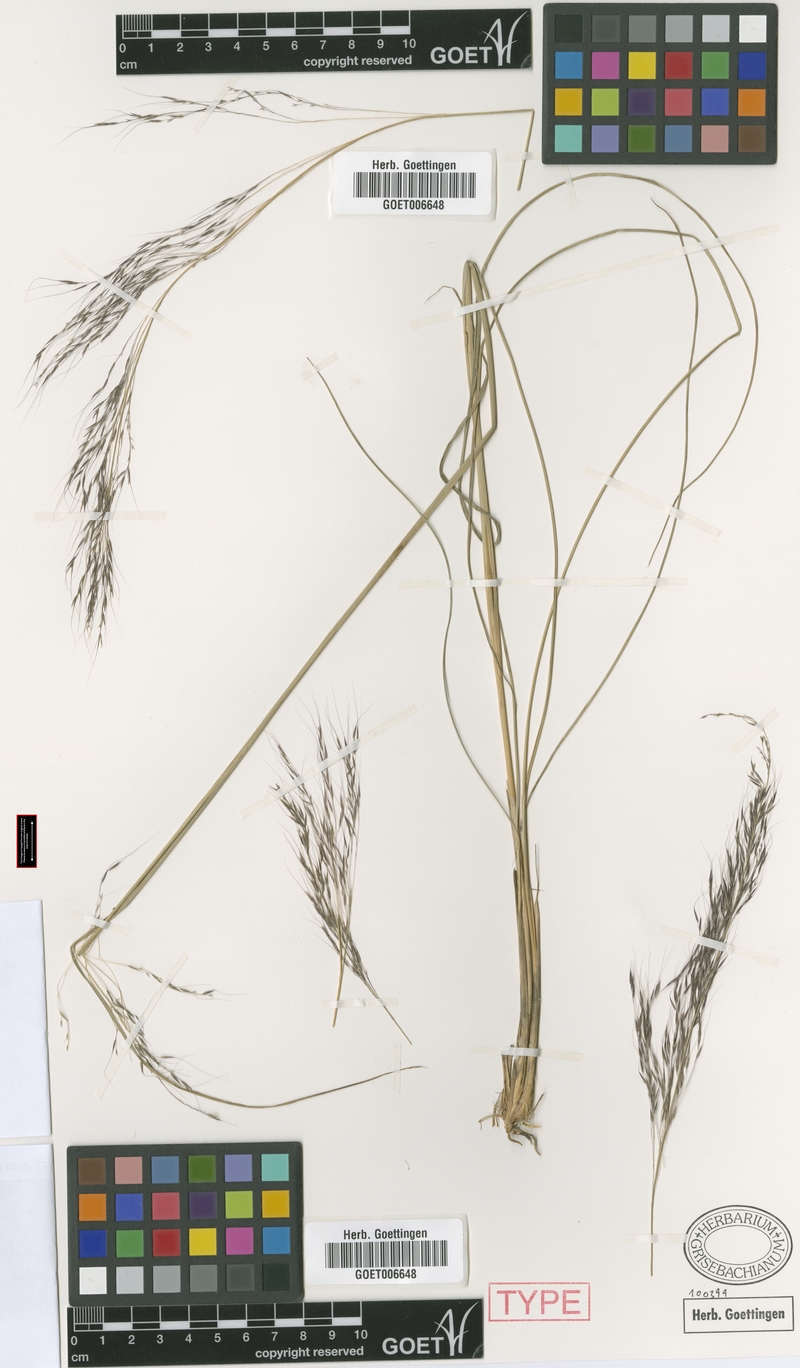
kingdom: Plantae
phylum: Tracheophyta
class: Liliopsida
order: Poales
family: Poaceae
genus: Muhlenbergia
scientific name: Muhlenbergia rigida
